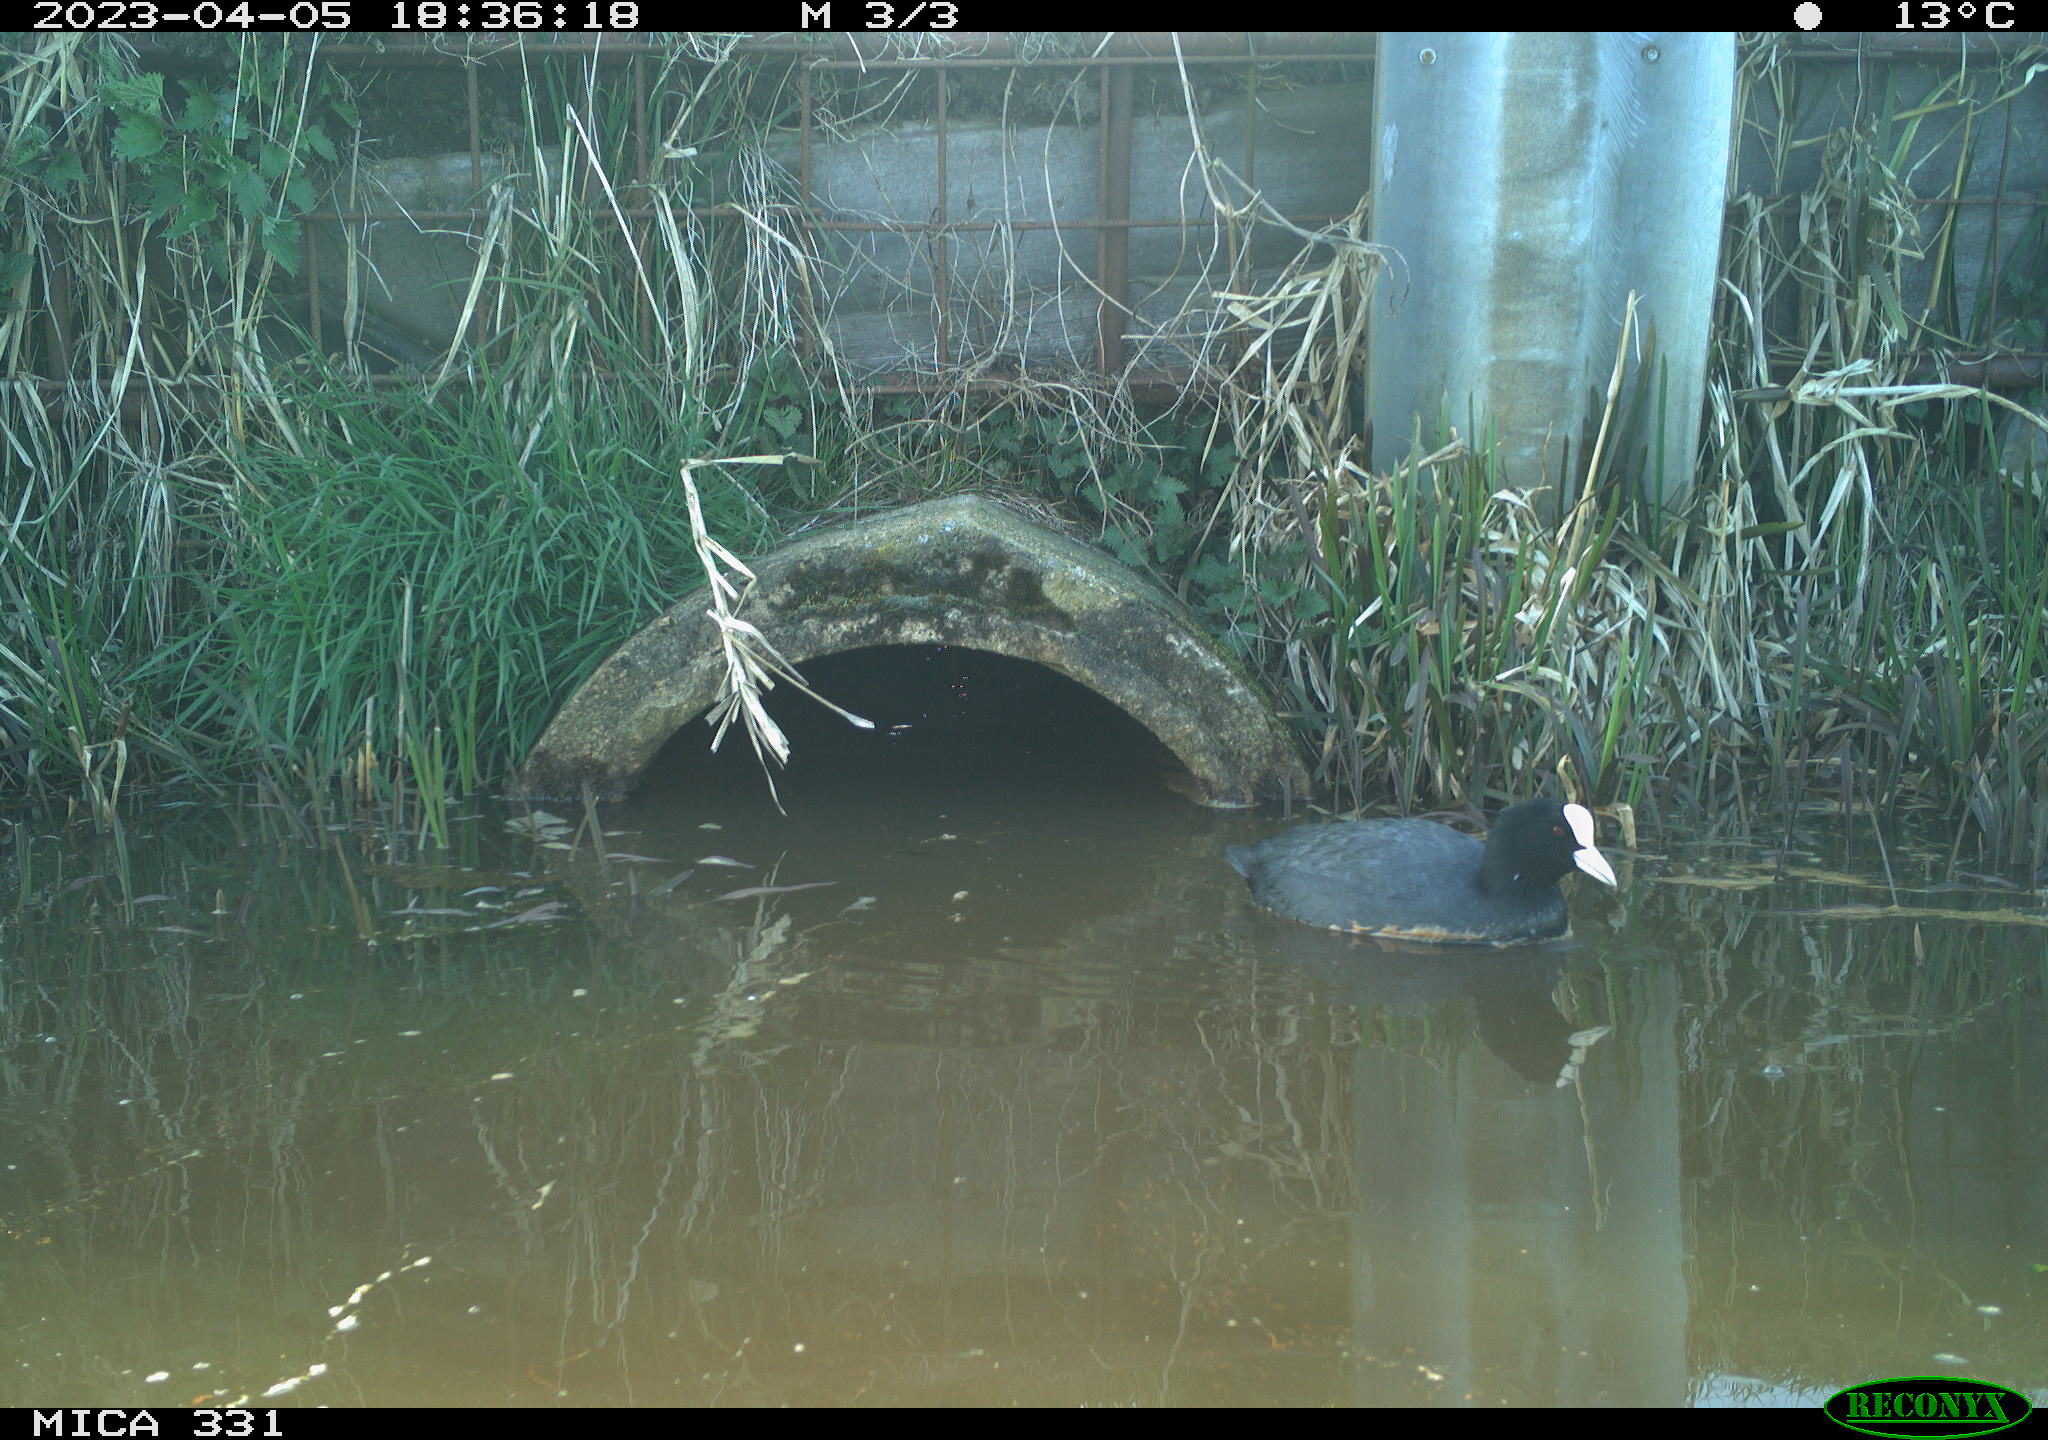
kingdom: Animalia
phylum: Chordata
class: Aves
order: Gruiformes
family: Rallidae
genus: Fulica
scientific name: Fulica atra
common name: Eurasian coot
